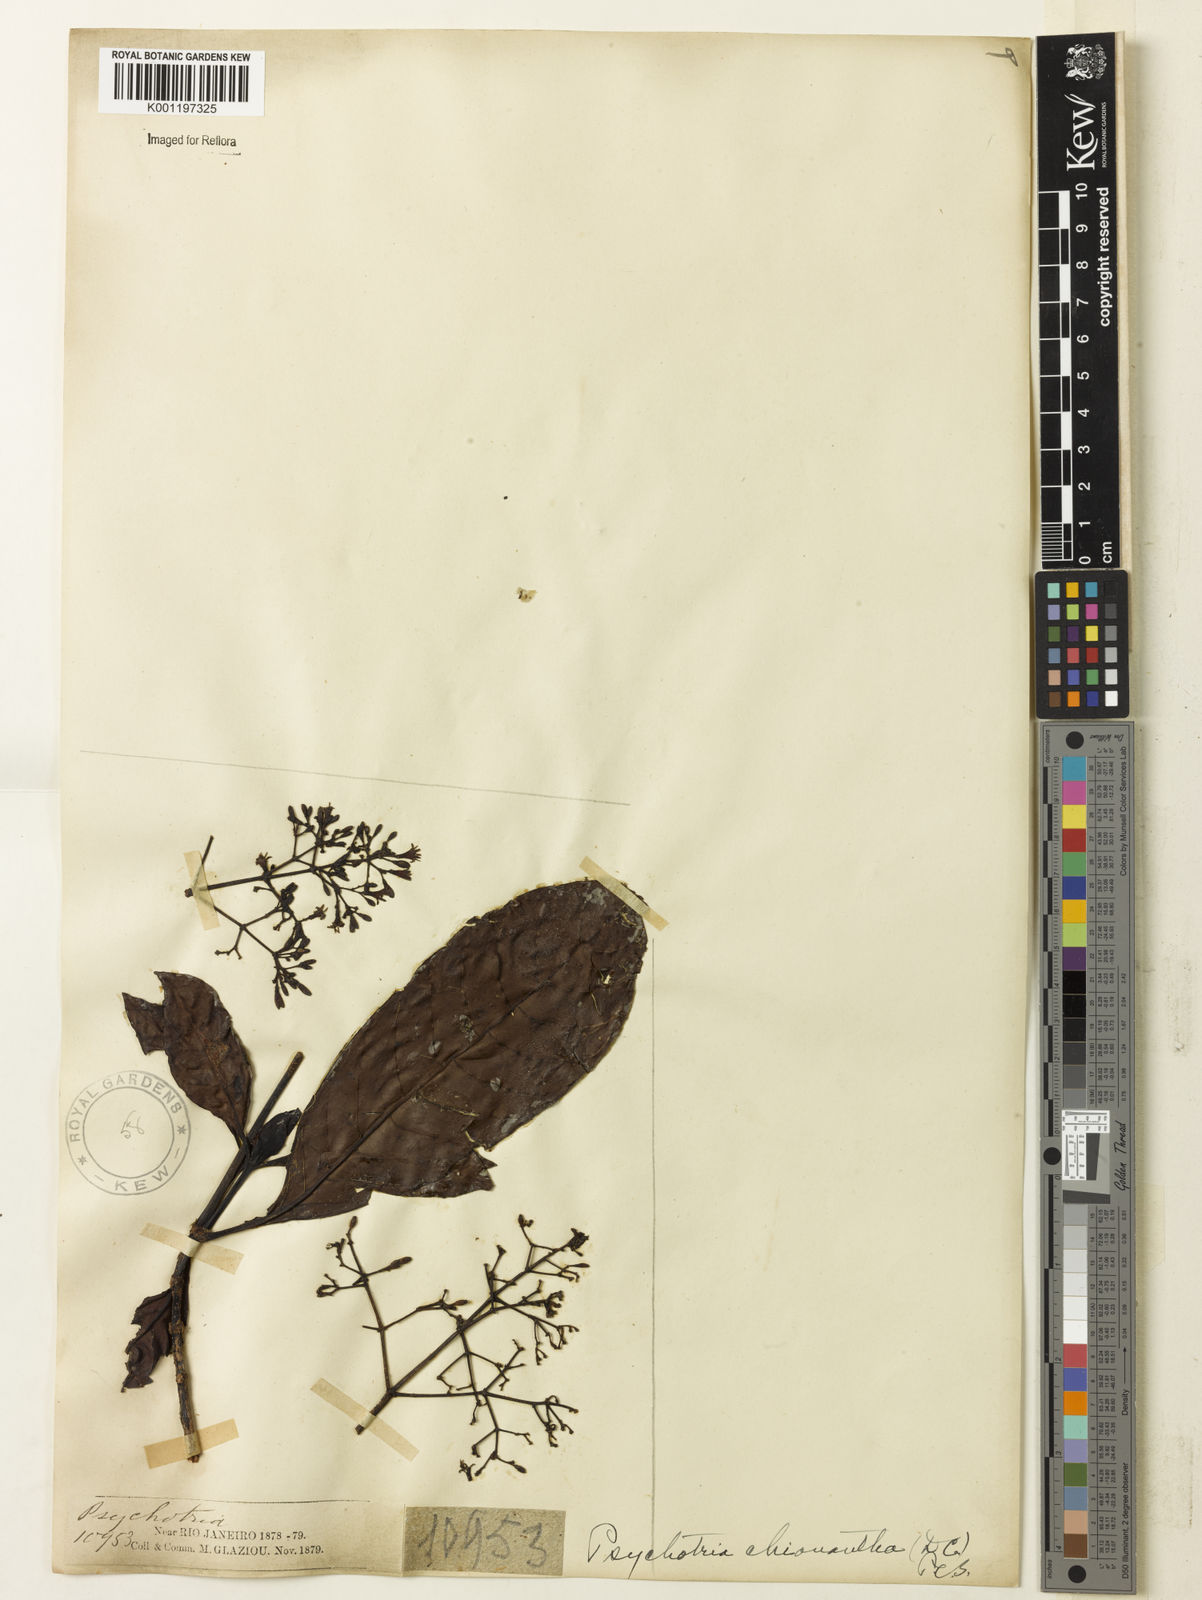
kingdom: Plantae
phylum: Tracheophyta
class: Magnoliopsida
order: Gentianales
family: Rubiaceae
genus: Psychotria
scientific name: Psychotria pedunculosa
